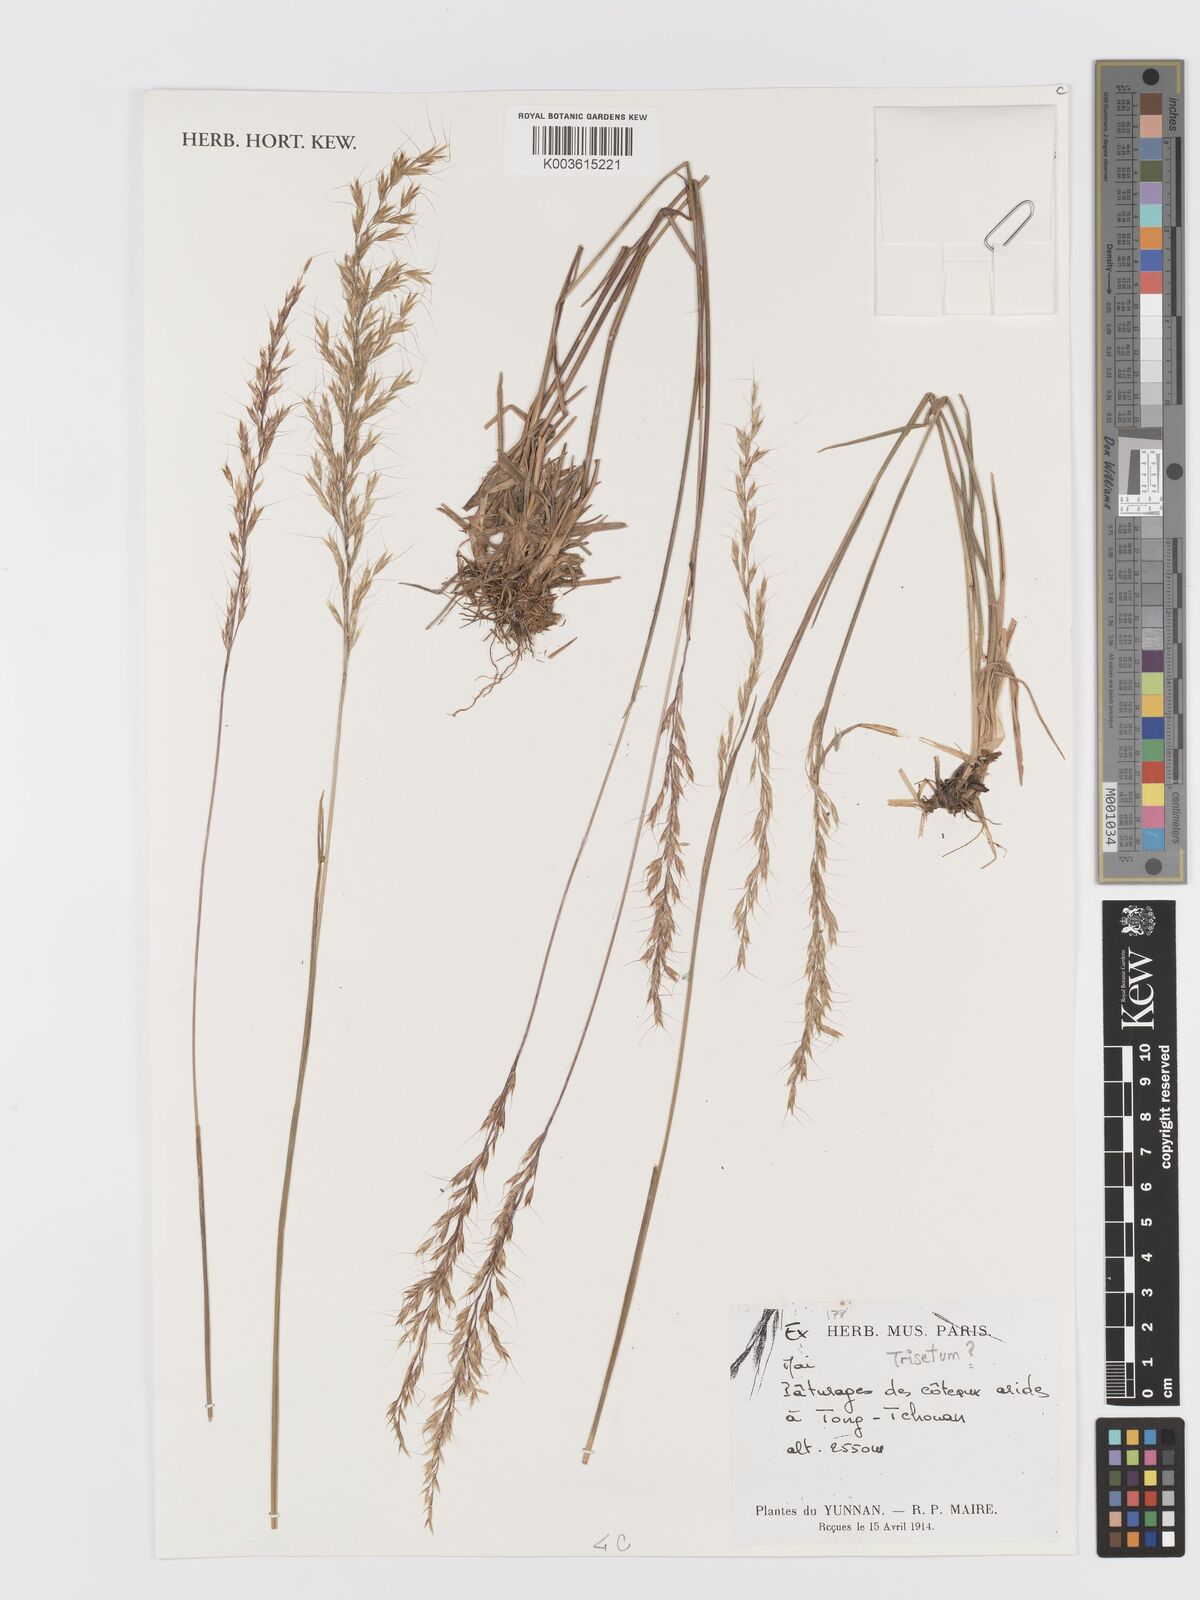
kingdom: Plantae
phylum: Tracheophyta
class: Liliopsida
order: Poales
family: Poaceae
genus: Trisetum
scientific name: Trisetum
